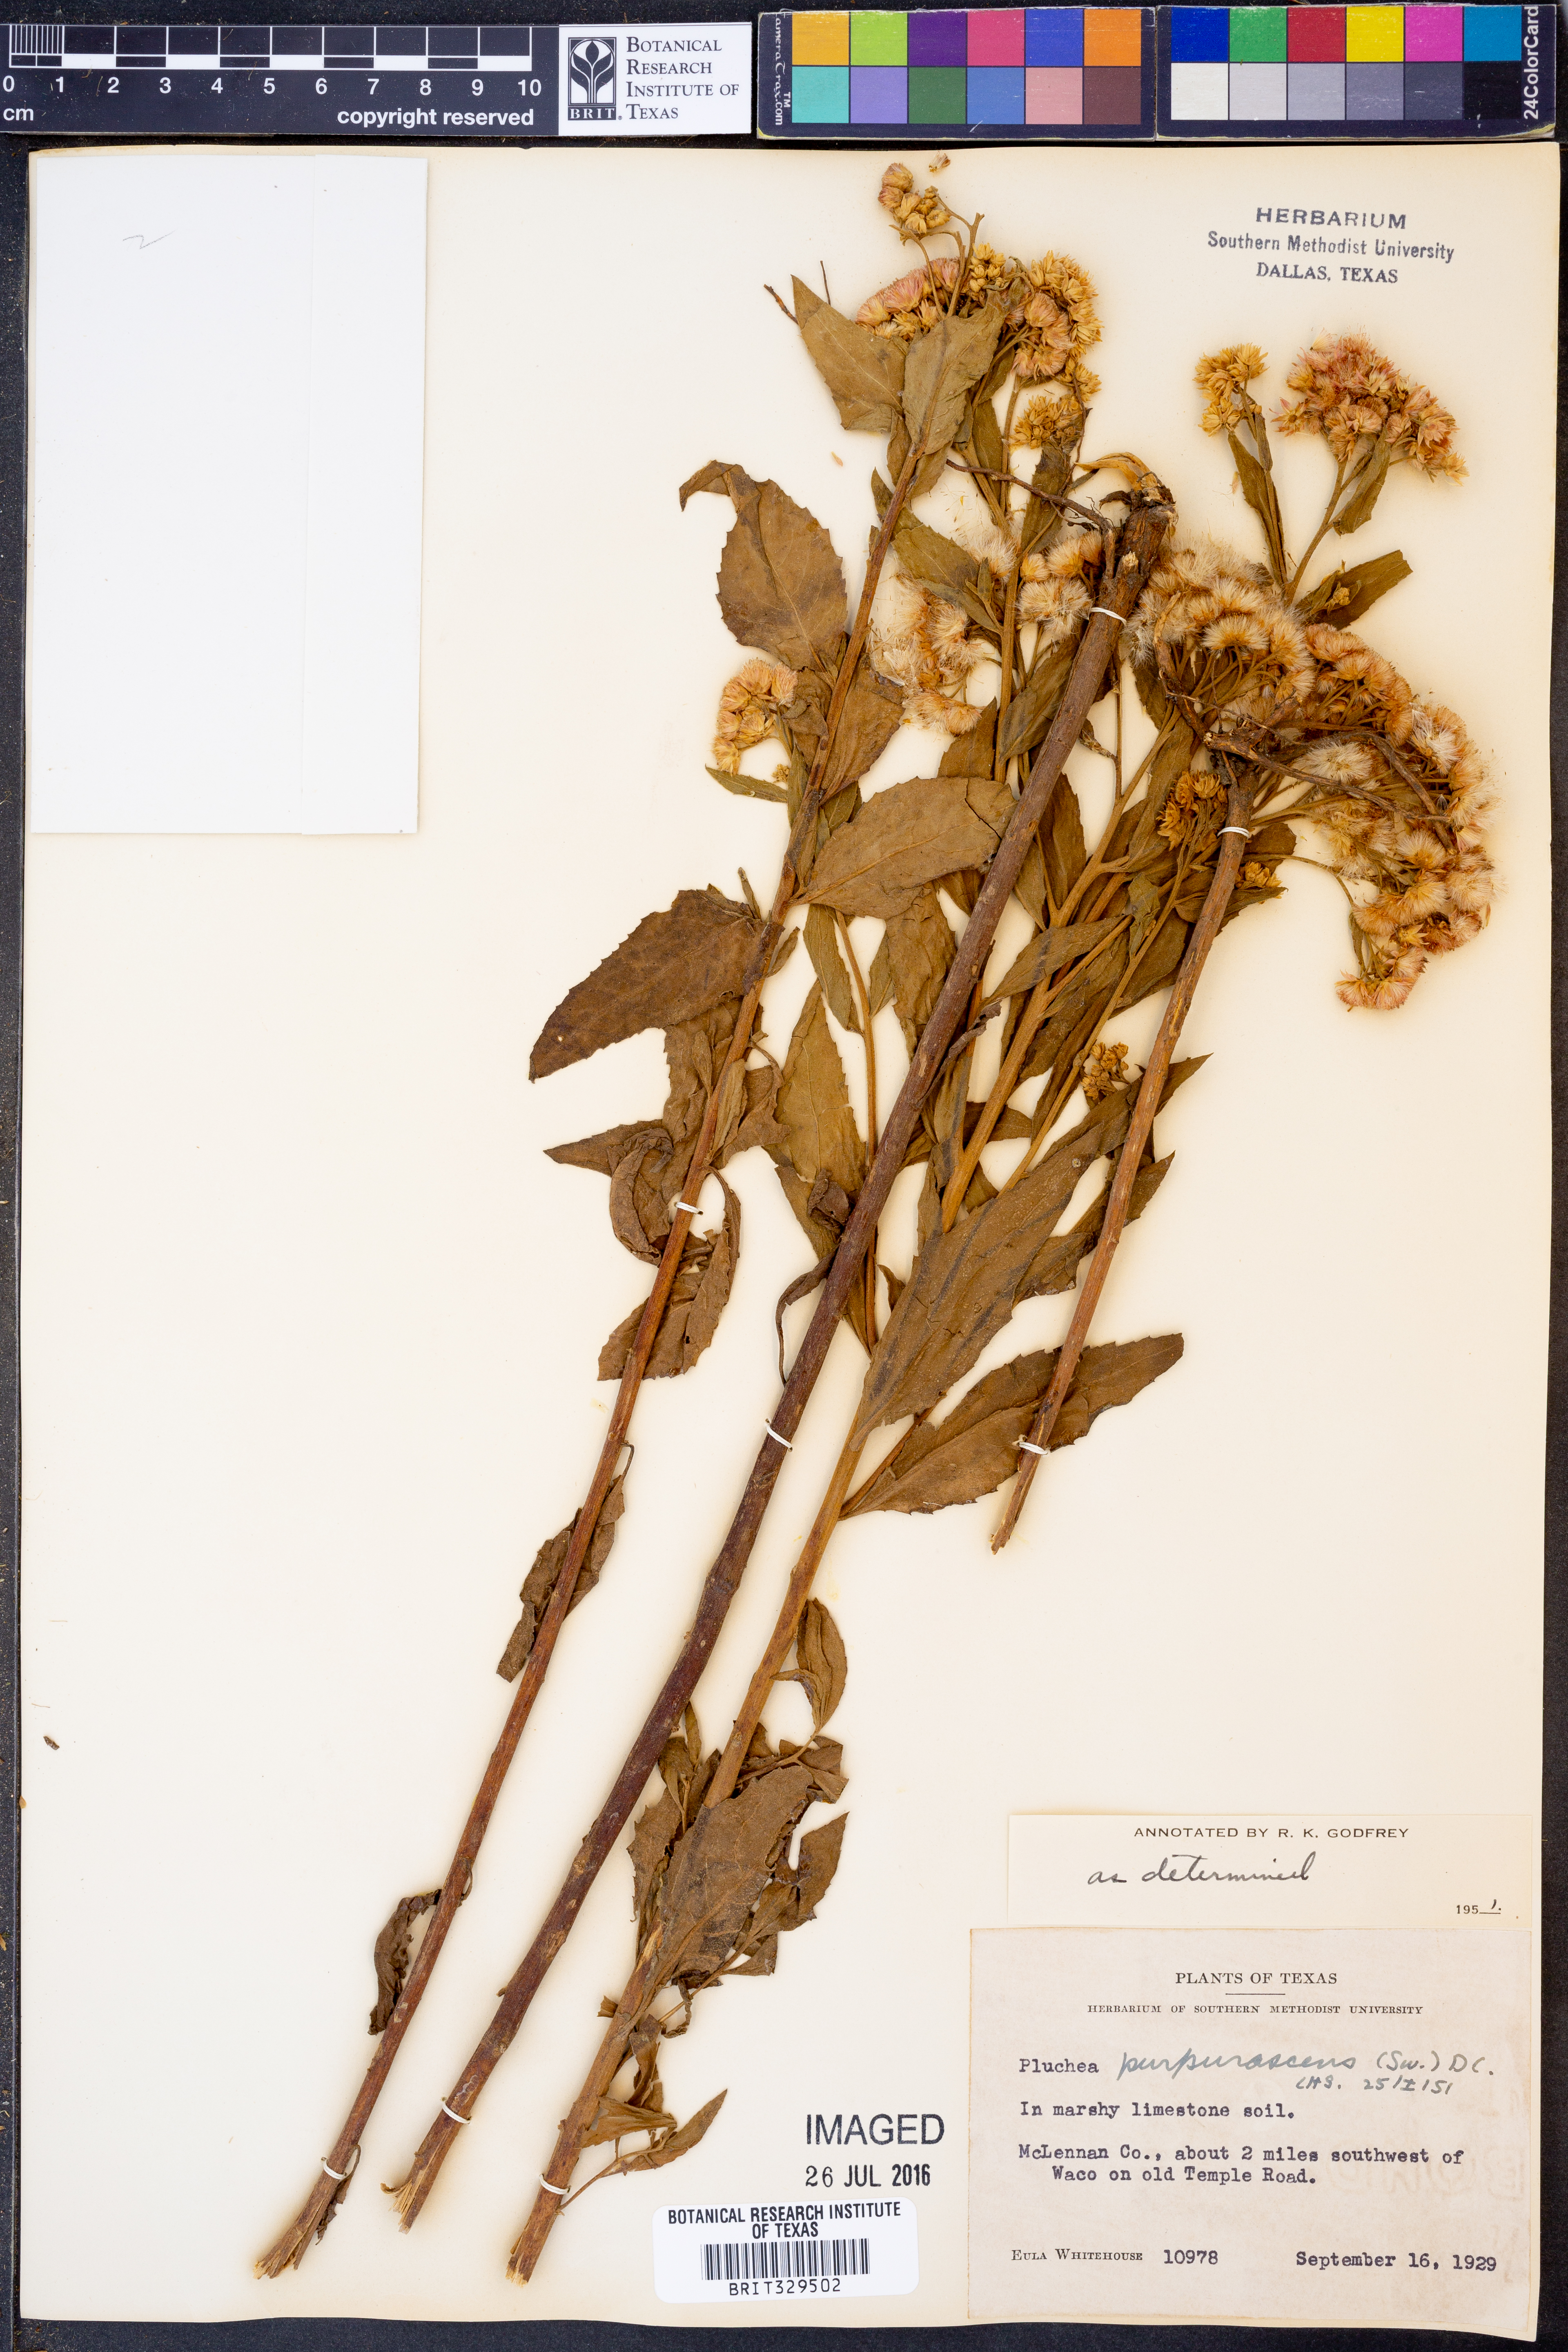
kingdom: Plantae
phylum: Tracheophyta
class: Magnoliopsida
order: Asterales
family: Asteraceae
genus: Pluchea
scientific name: Pluchea odorata
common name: Saltmarsh fleabane
